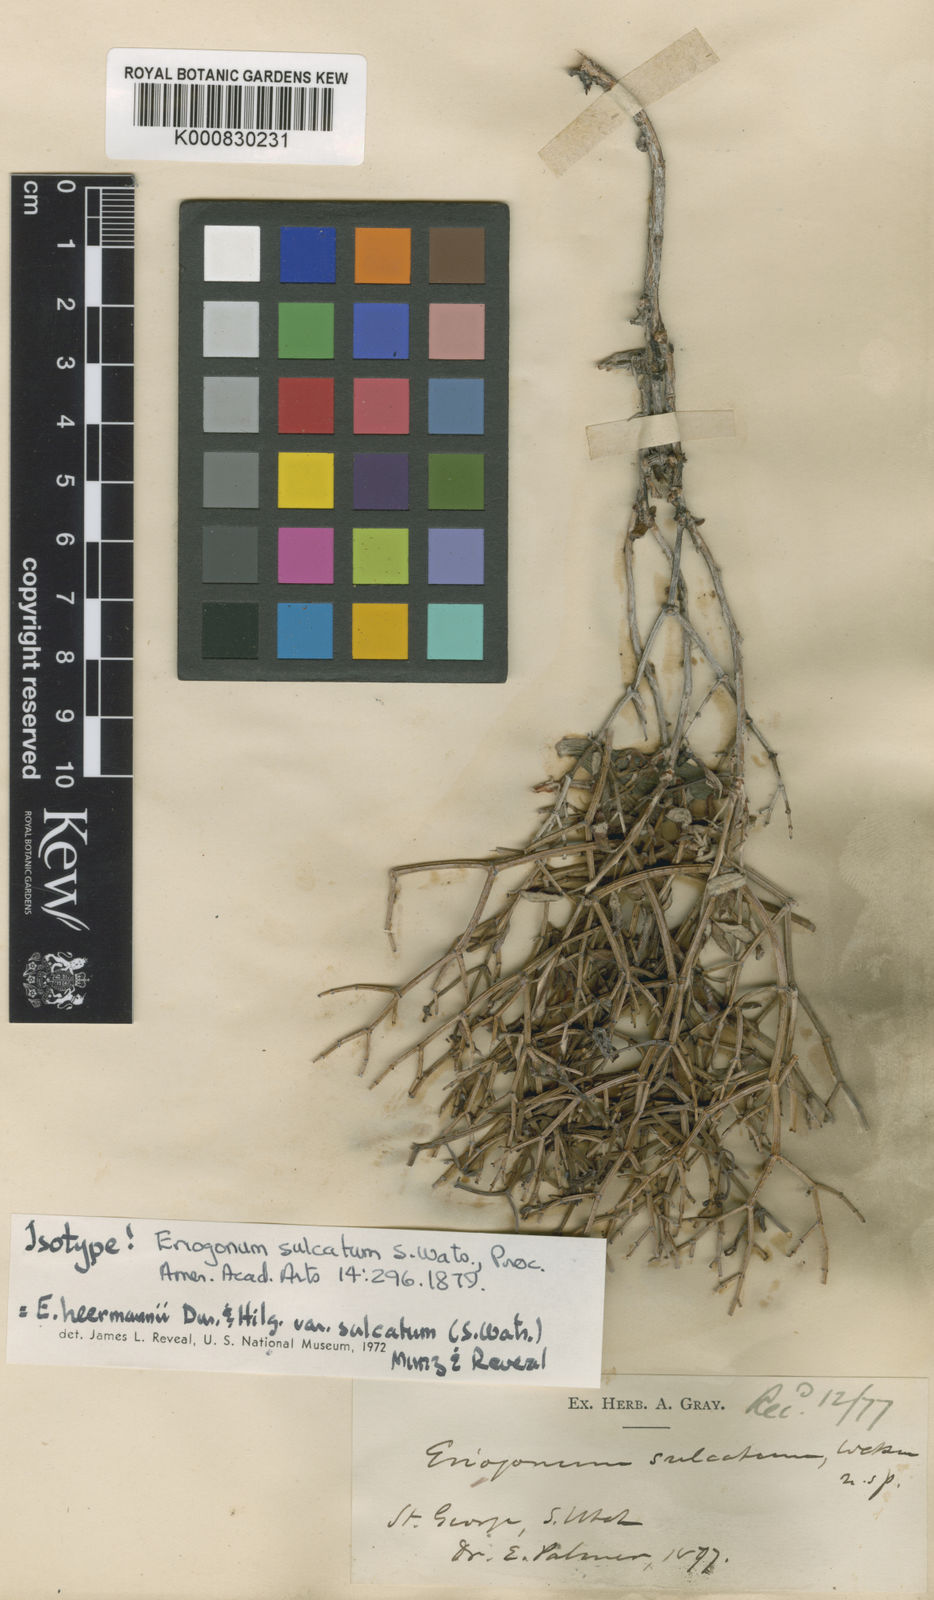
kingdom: Plantae
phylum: Tracheophyta
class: Magnoliopsida
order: Caryophyllales
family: Polygonaceae
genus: Eriogonum
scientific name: Eriogonum heermannii
